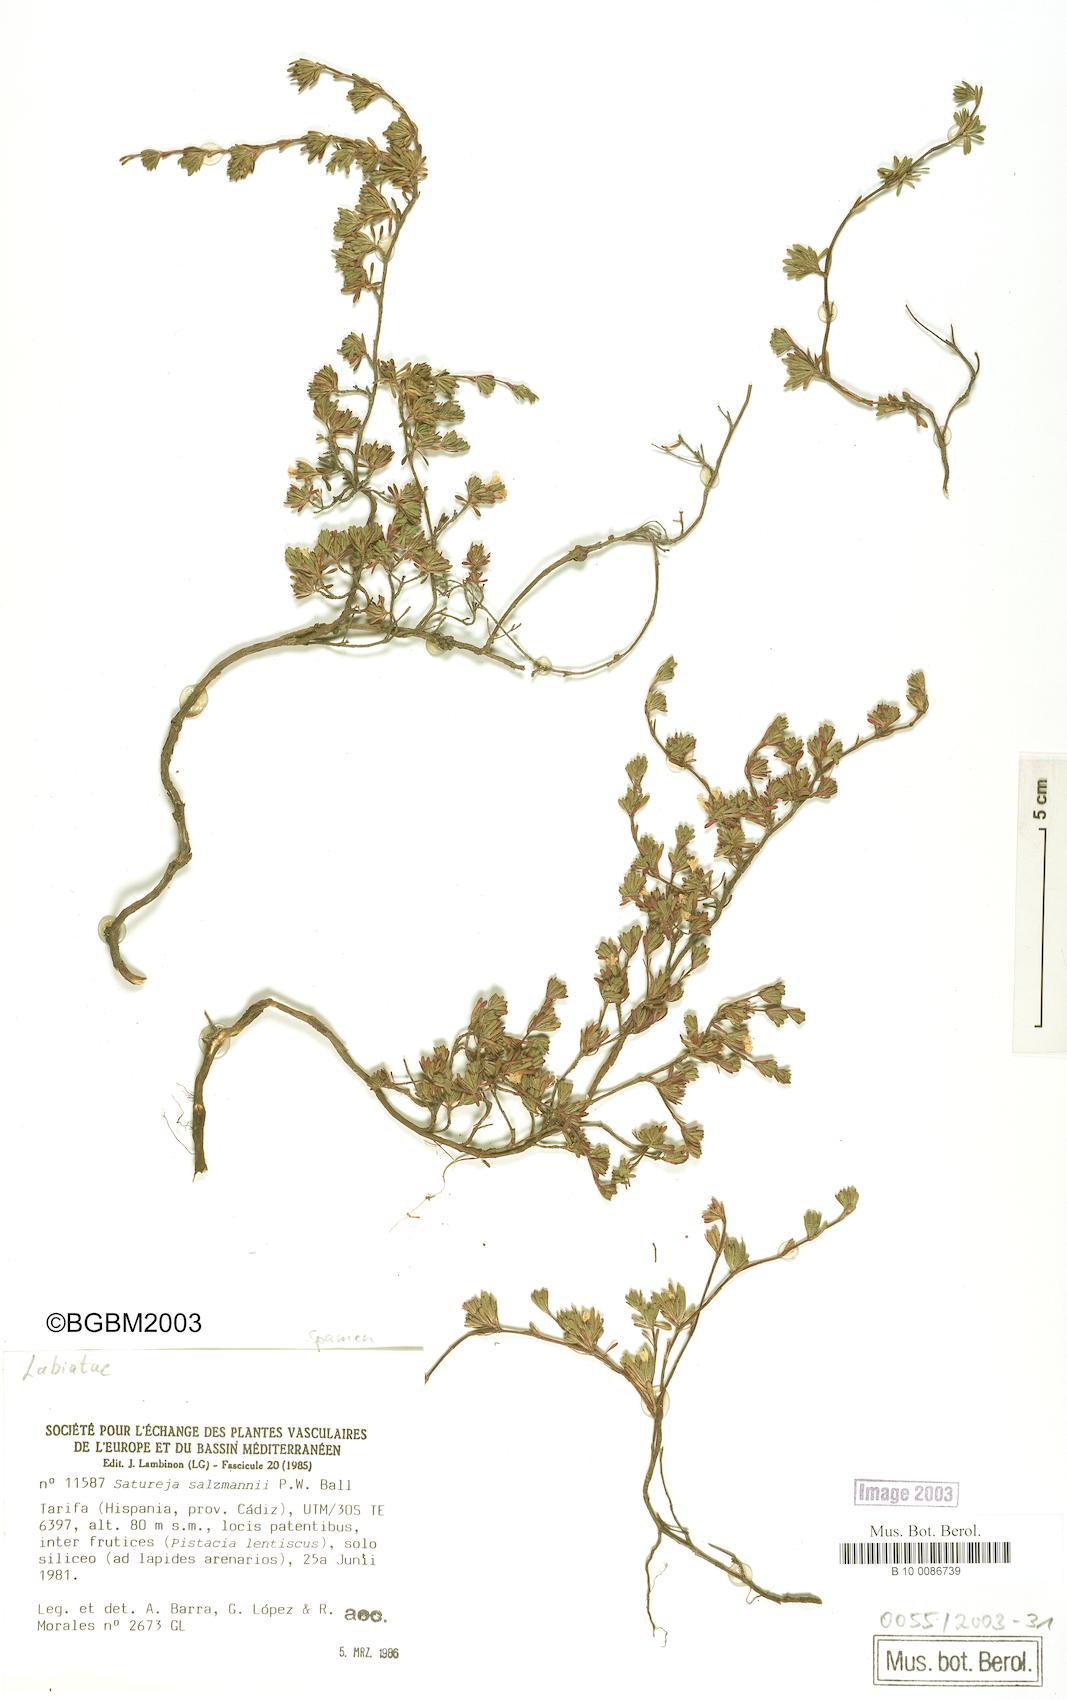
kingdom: Plantae
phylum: Tracheophyta
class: Magnoliopsida
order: Lamiales
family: Lamiaceae
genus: Satureja
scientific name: Satureja salzmannii
